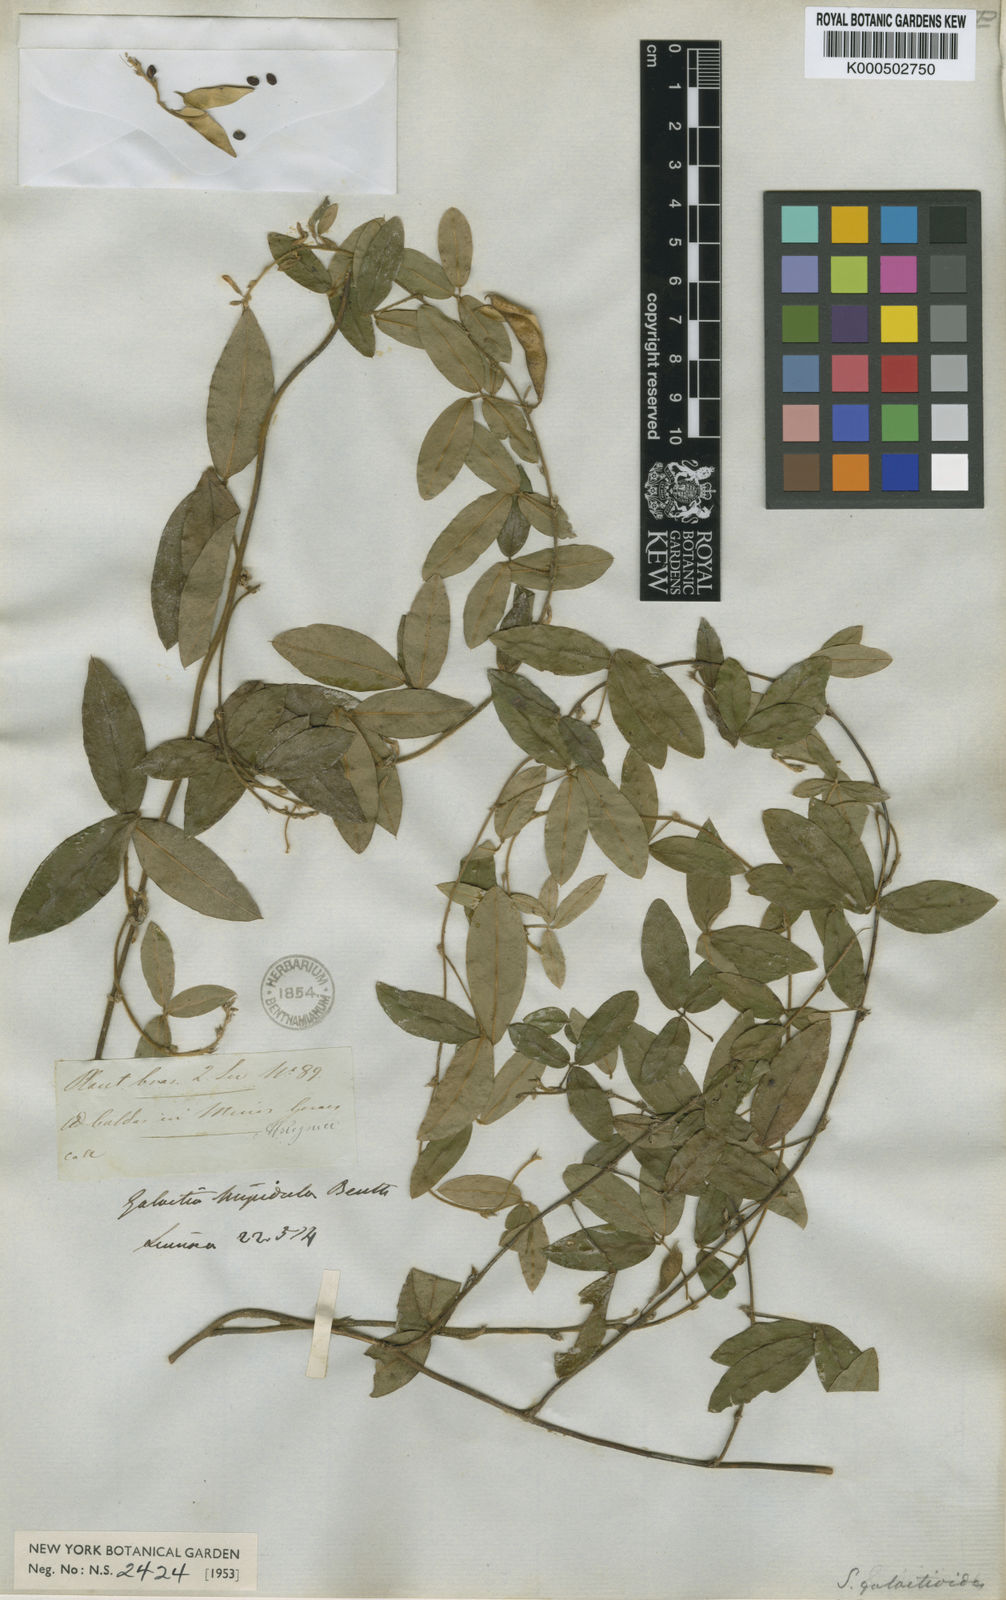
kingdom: Plantae
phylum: Tracheophyta
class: Magnoliopsida
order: Fabales
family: Fabaceae
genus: Calopogonium
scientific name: Calopogonium
